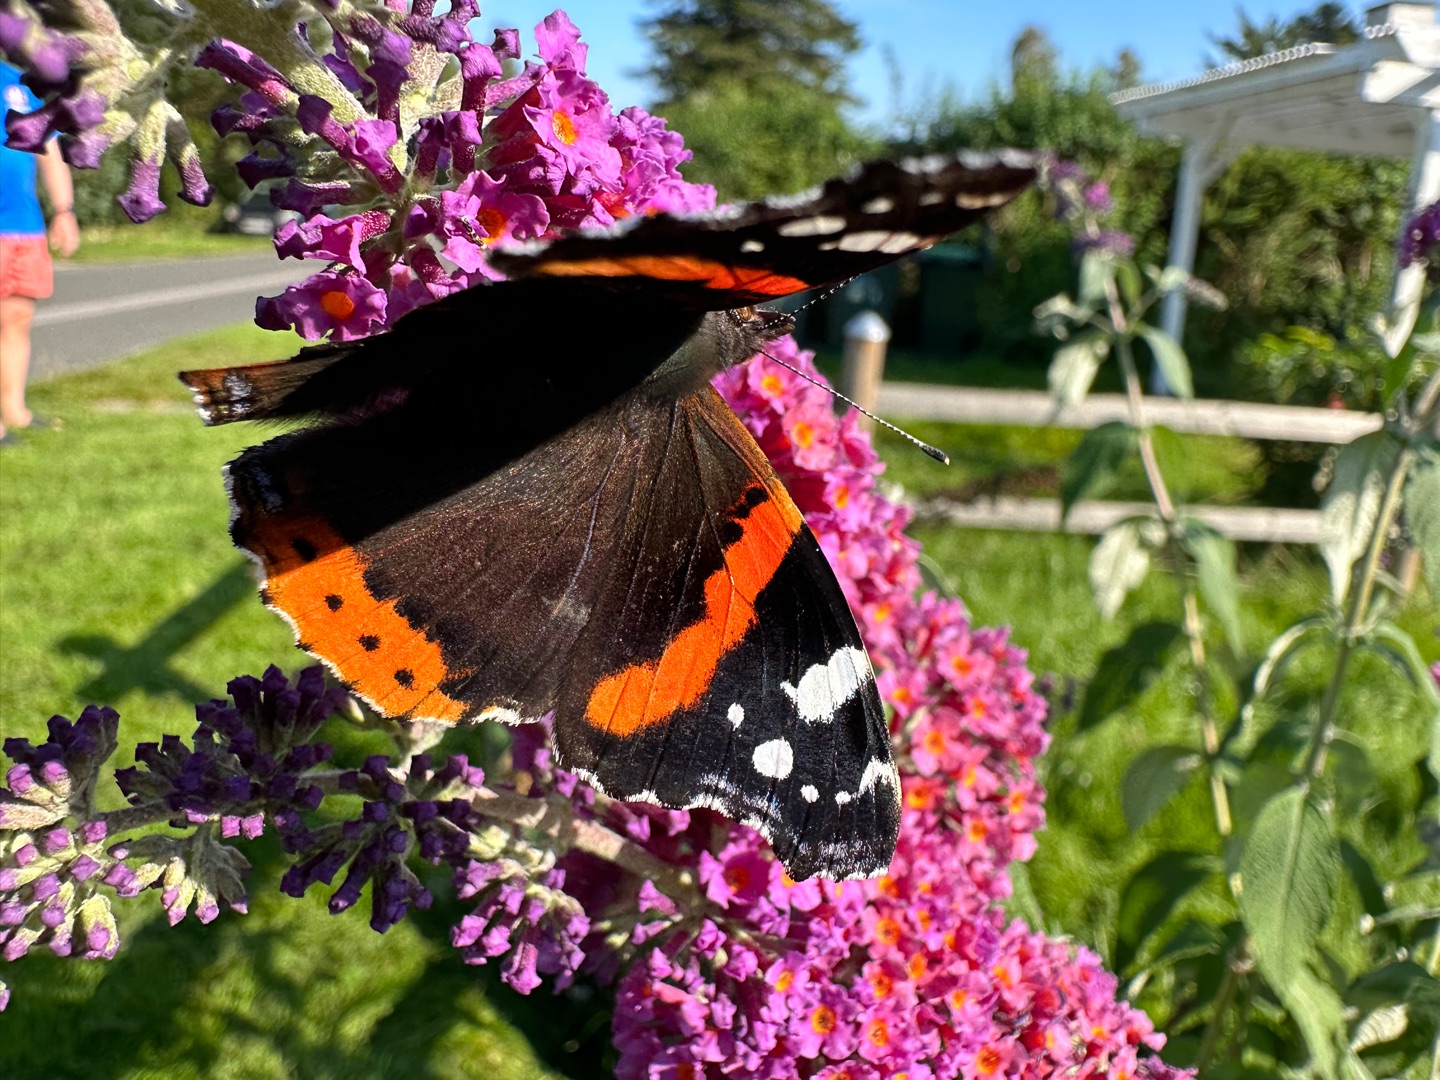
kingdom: Animalia
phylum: Arthropoda
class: Insecta
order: Lepidoptera
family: Nymphalidae
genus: Vanessa
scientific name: Vanessa atalanta
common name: Admiral
